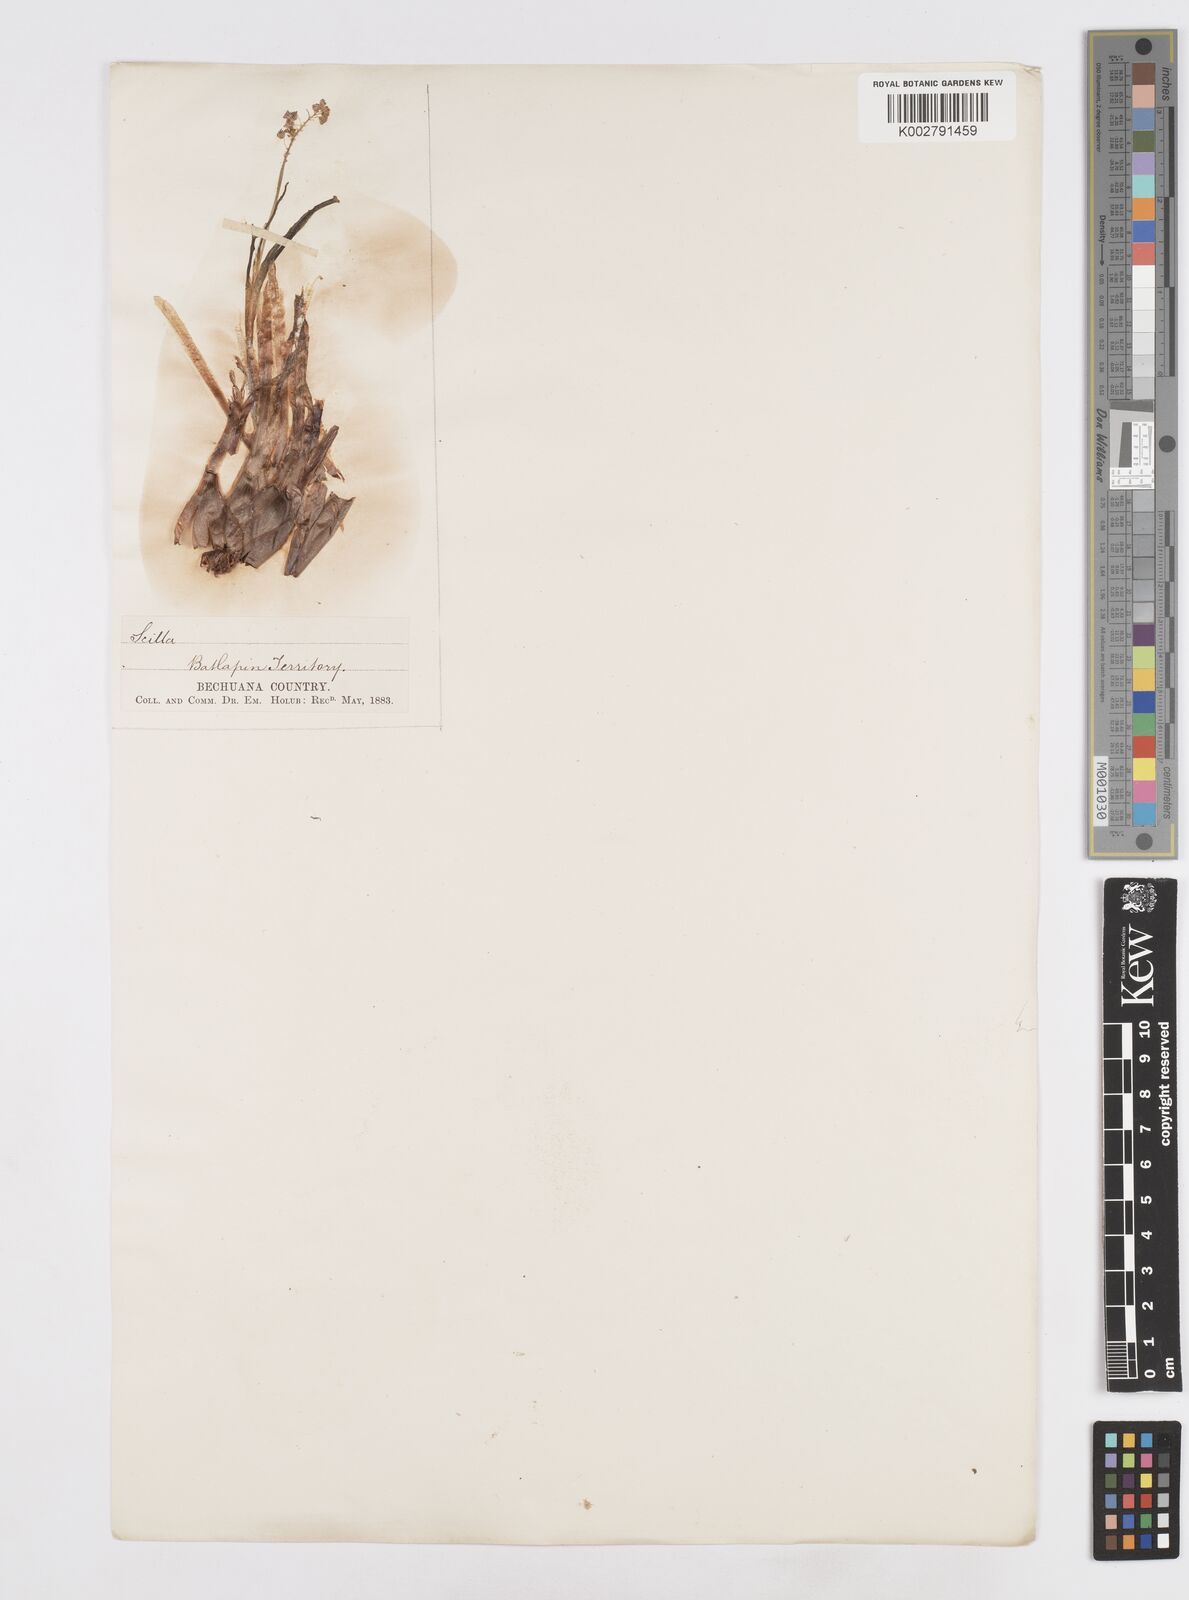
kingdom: Plantae
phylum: Tracheophyta
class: Liliopsida
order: Asparagales
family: Asparagaceae
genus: Scilla
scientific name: Scilla
